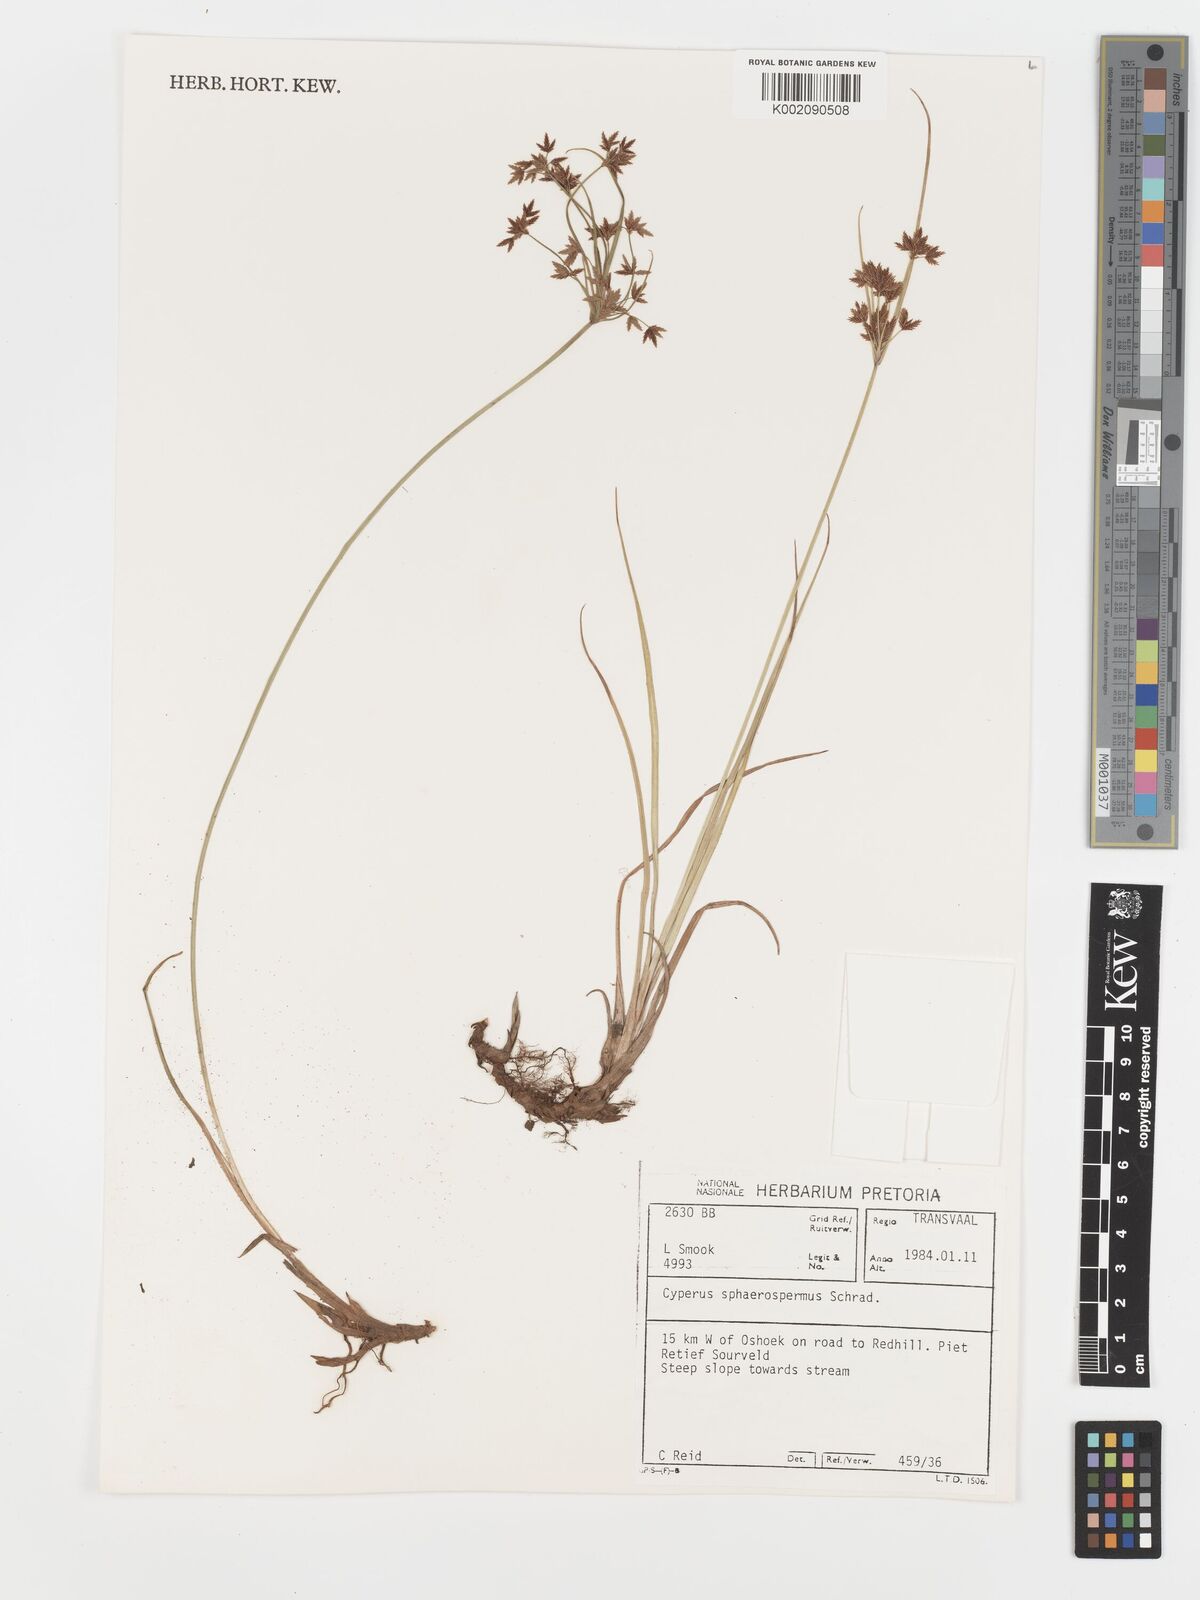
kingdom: Plantae
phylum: Tracheophyta
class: Liliopsida
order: Poales
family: Cyperaceae
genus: Cyperus
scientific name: Cyperus sphaerospermus
